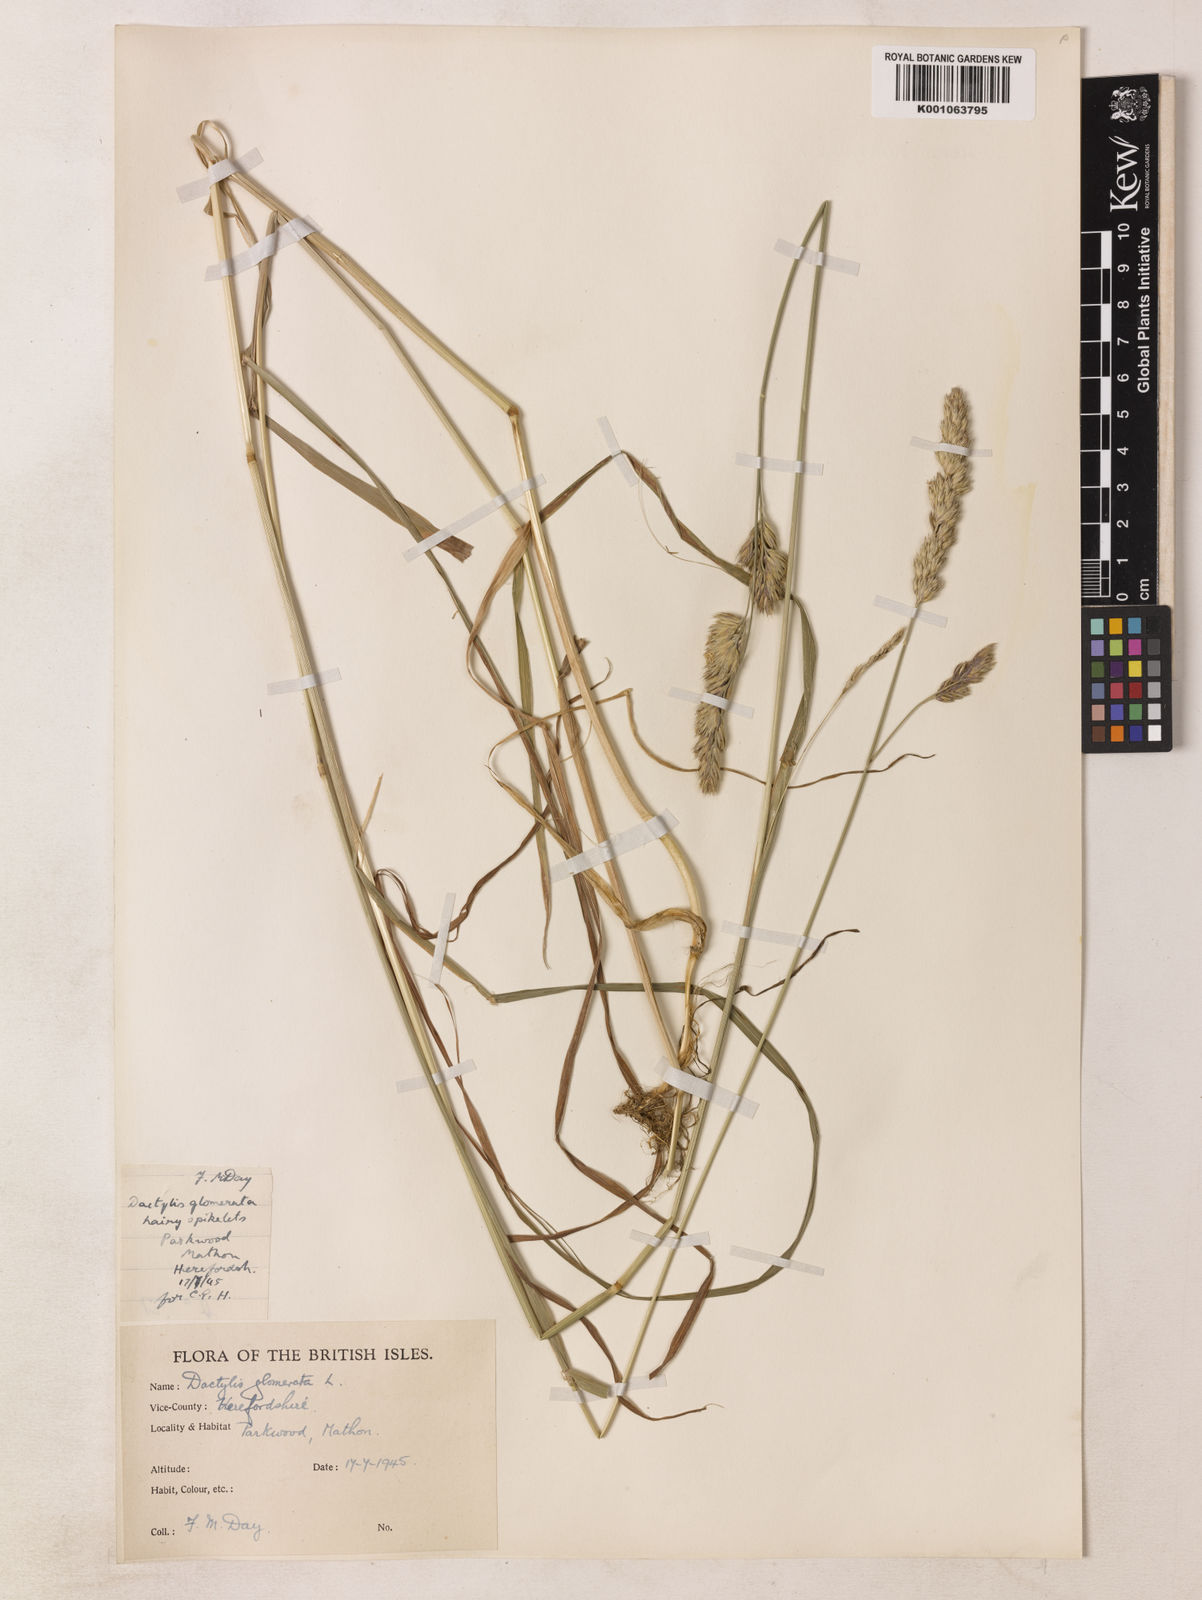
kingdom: Plantae
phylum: Tracheophyta
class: Liliopsida
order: Poales
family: Poaceae
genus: Dactylis
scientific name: Dactylis glomerata
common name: Orchardgrass
